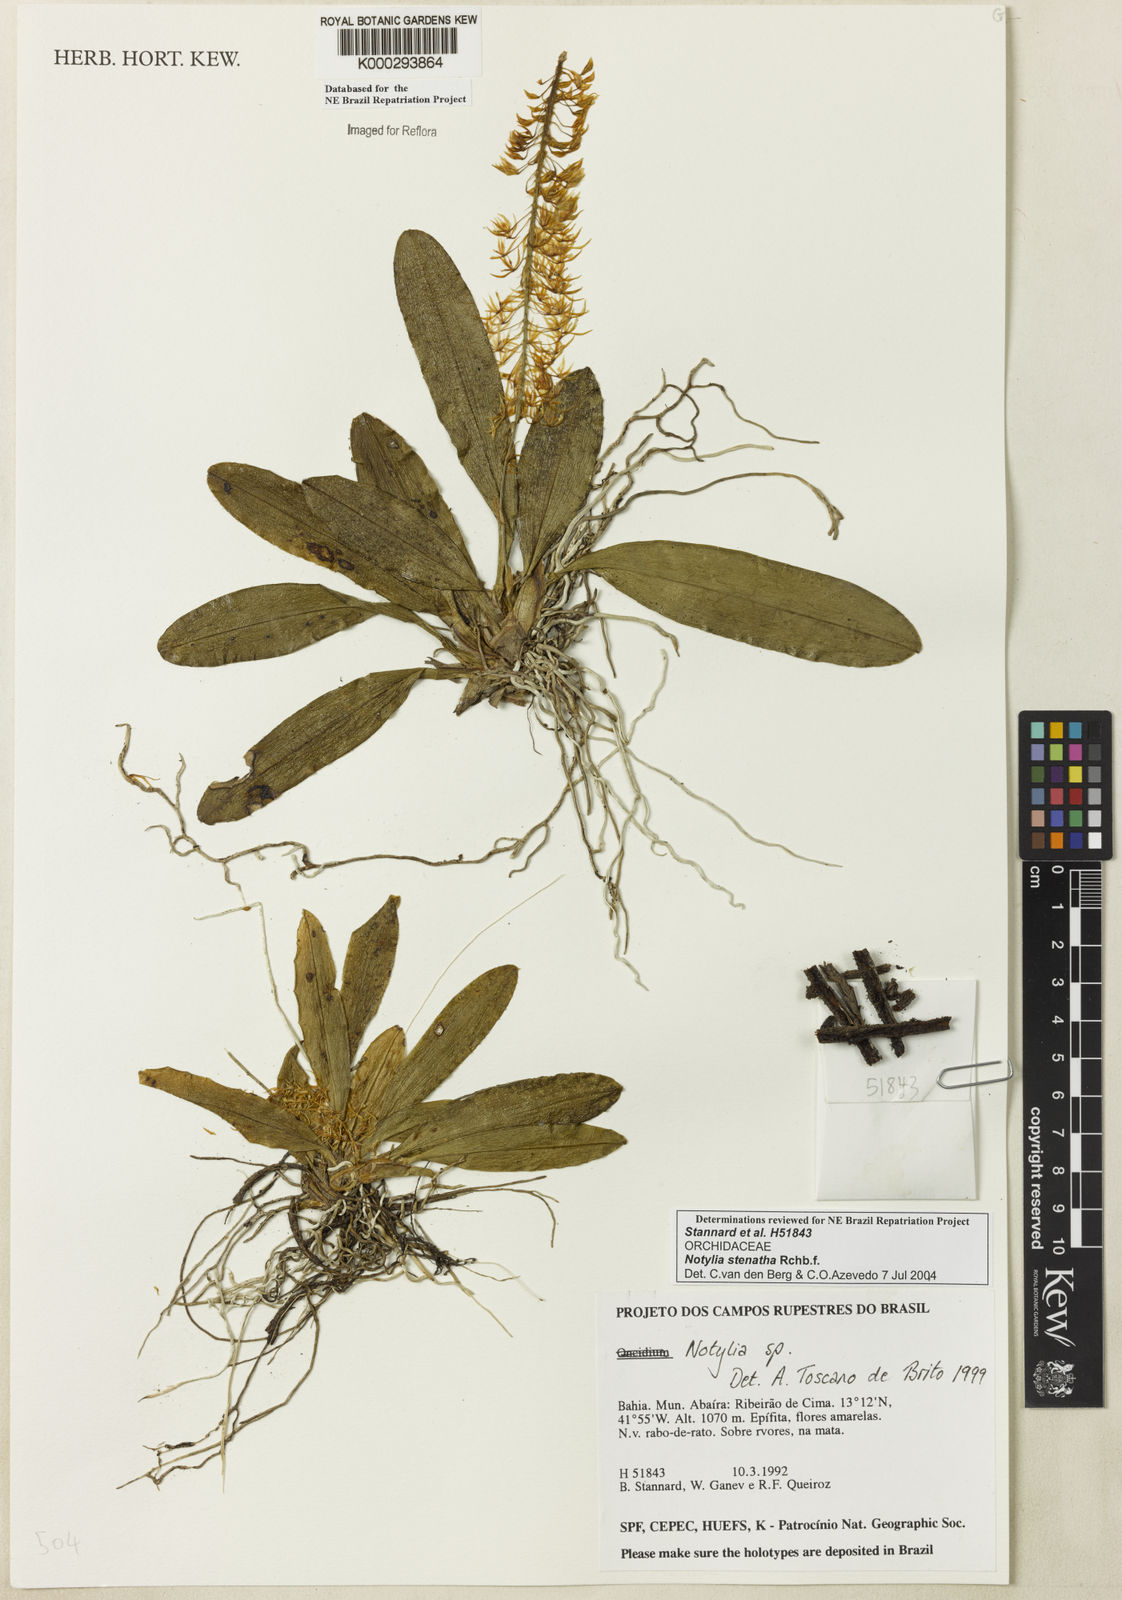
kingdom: Plantae
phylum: Tracheophyta
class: Liliopsida
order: Asparagales
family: Orchidaceae
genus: Notylia
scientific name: Notylia
